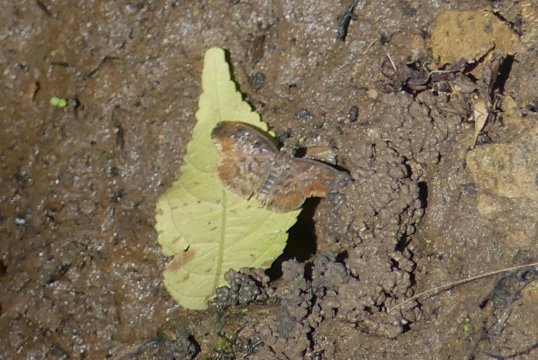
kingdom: Animalia
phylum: Arthropoda
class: Insecta
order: Lepidoptera
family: Hesperiidae
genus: Sophista
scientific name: Sophista bifasciata
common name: Blue-studded Skipper
